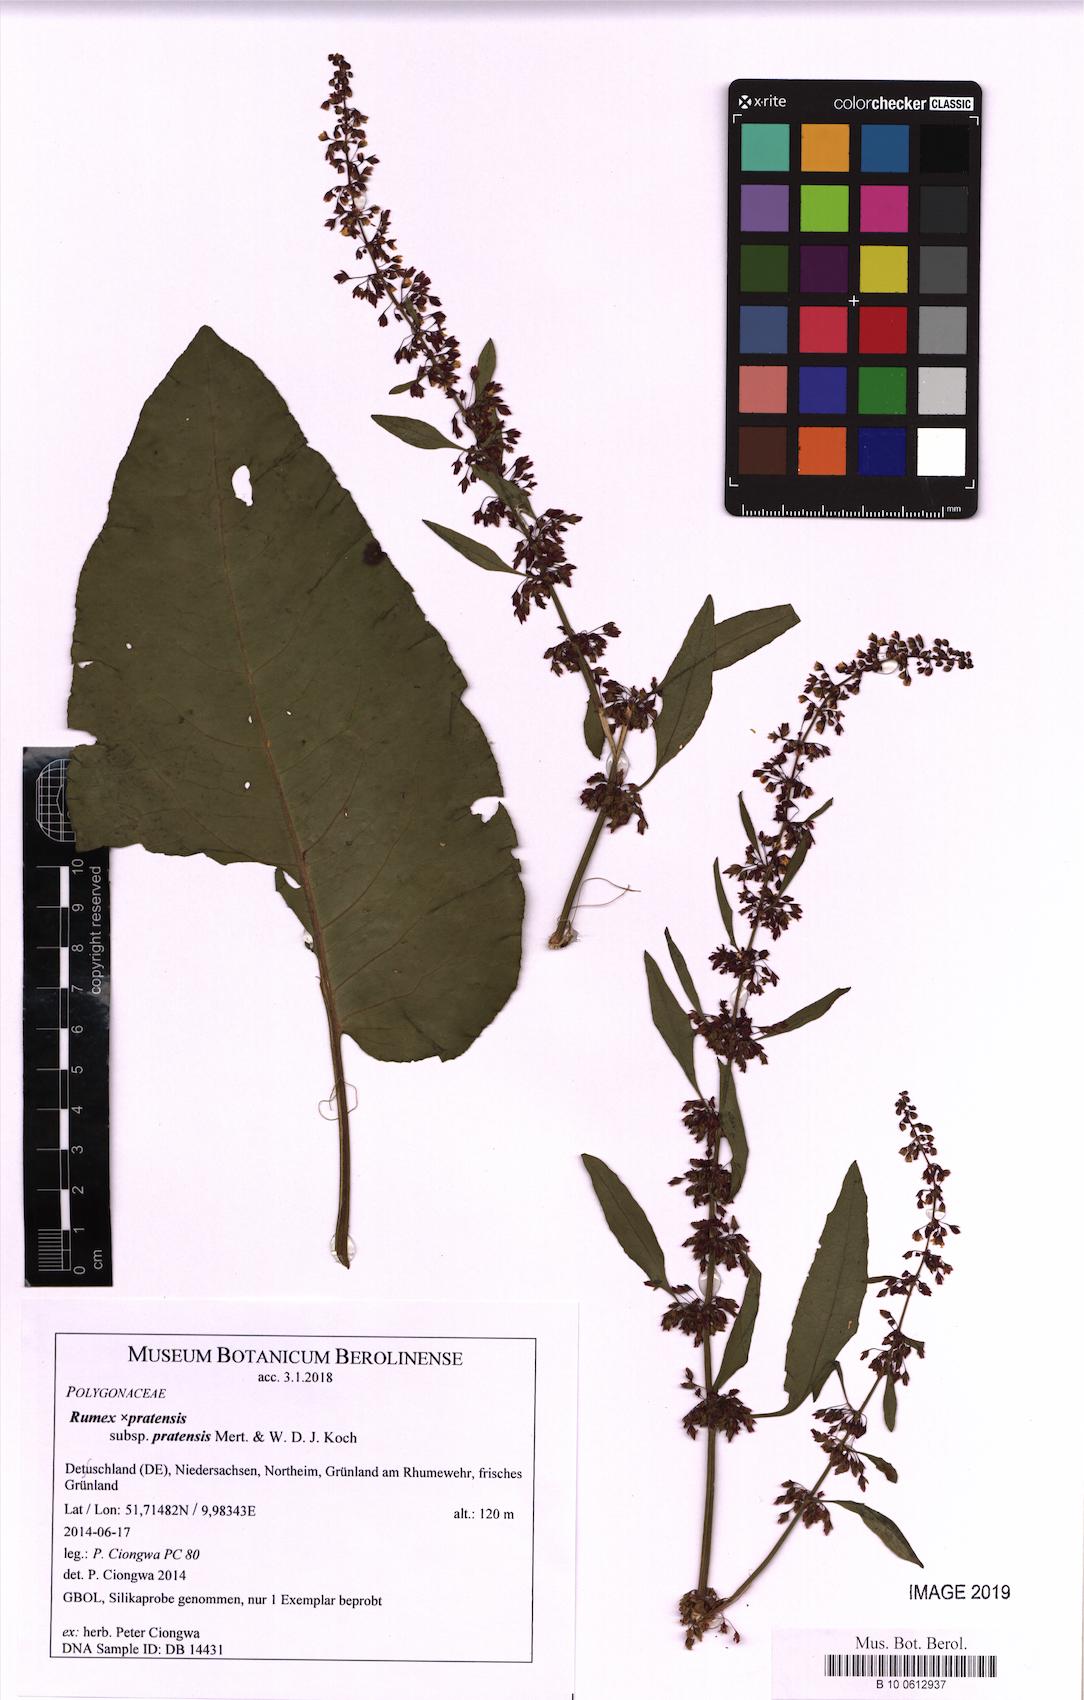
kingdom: Plantae
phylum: Tracheophyta
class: Magnoliopsida
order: Caryophyllales
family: Polygonaceae
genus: Rumex
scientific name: Rumex pratensis
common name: Knotweed
